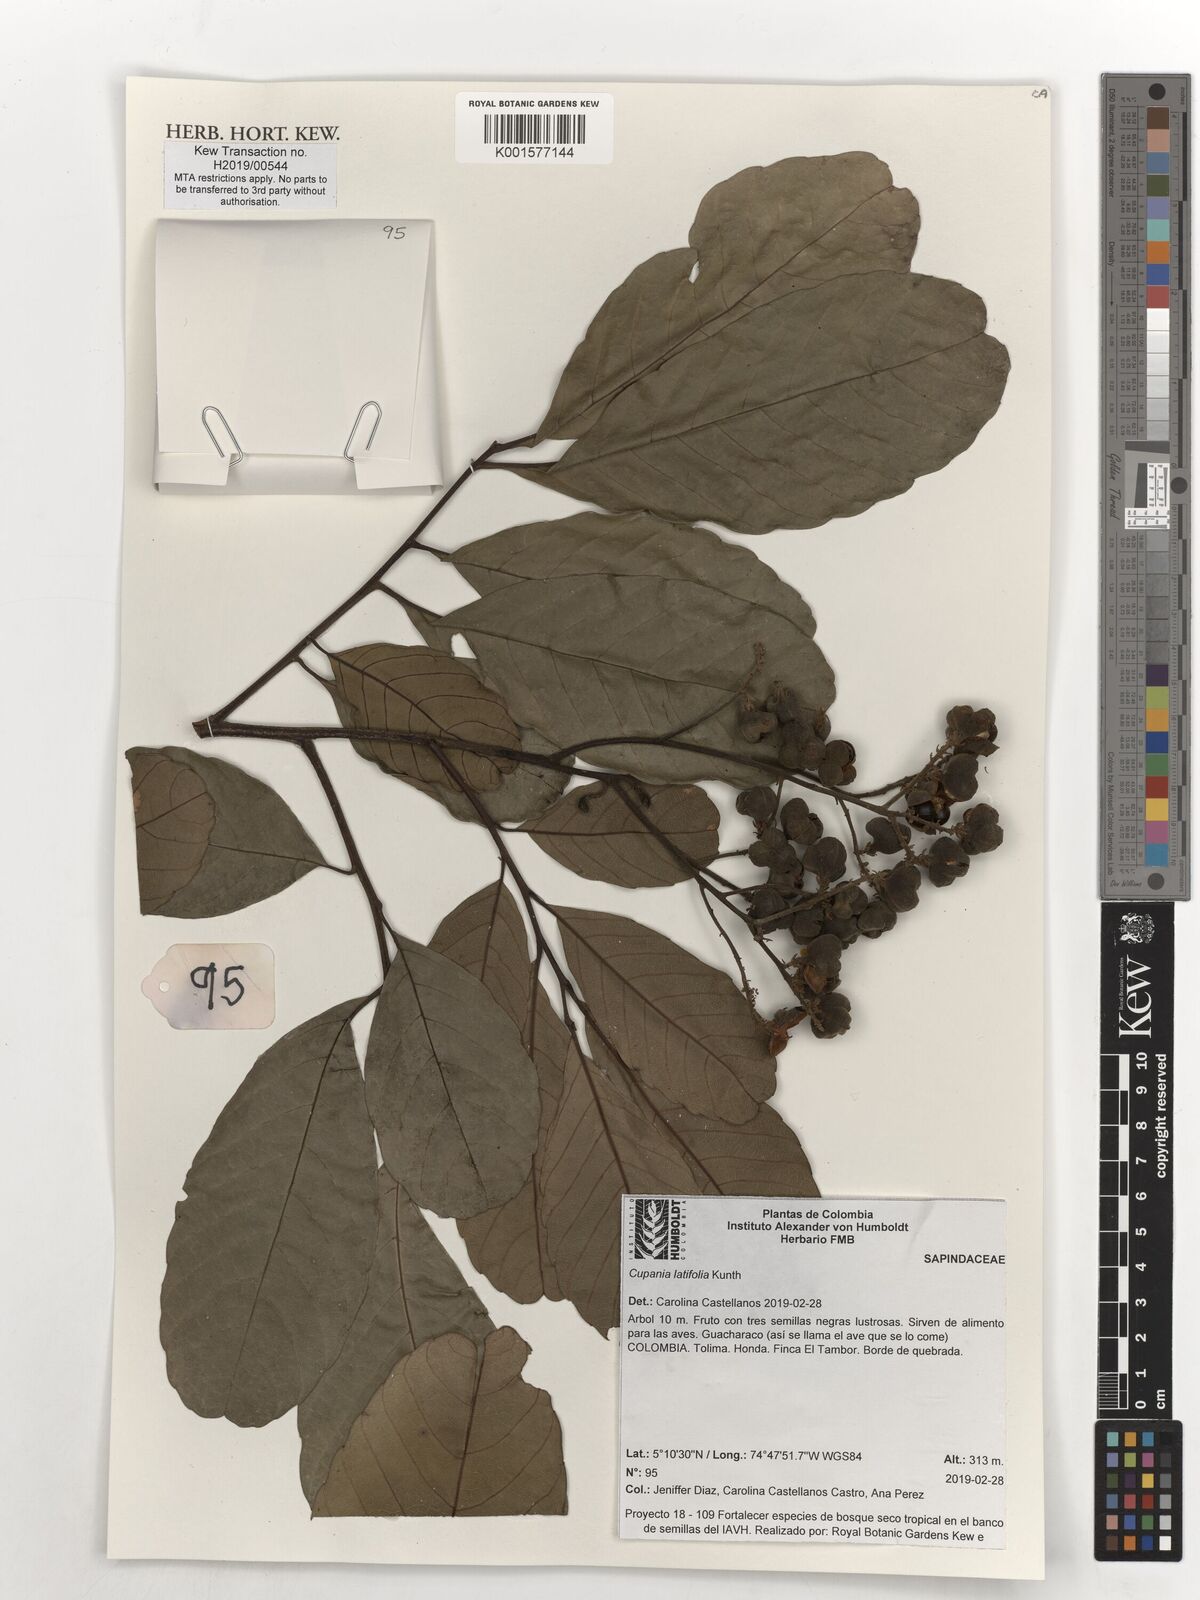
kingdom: Plantae
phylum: Tracheophyta
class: Magnoliopsida
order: Sapindales
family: Sapindaceae
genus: Cupania
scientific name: Cupania latifolia
